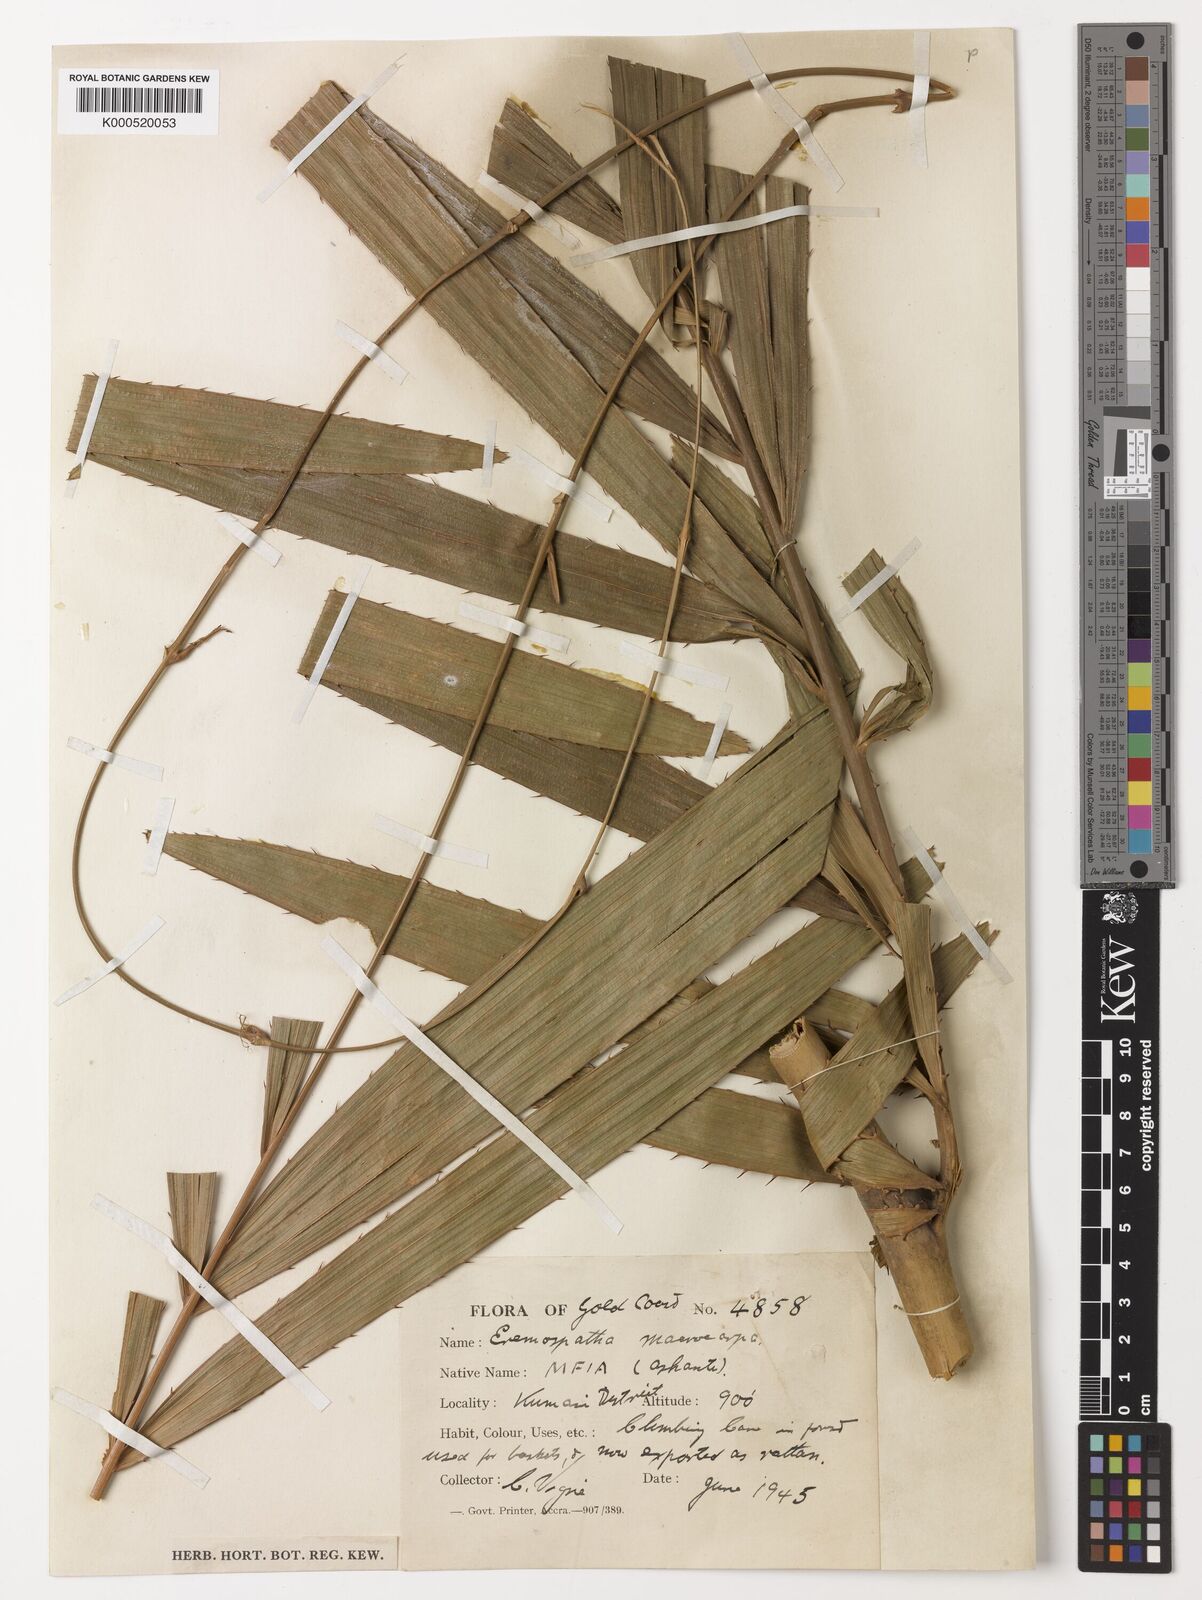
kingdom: Plantae
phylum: Tracheophyta
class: Liliopsida
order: Arecales
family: Arecaceae
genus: Eremospatha
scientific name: Eremospatha
